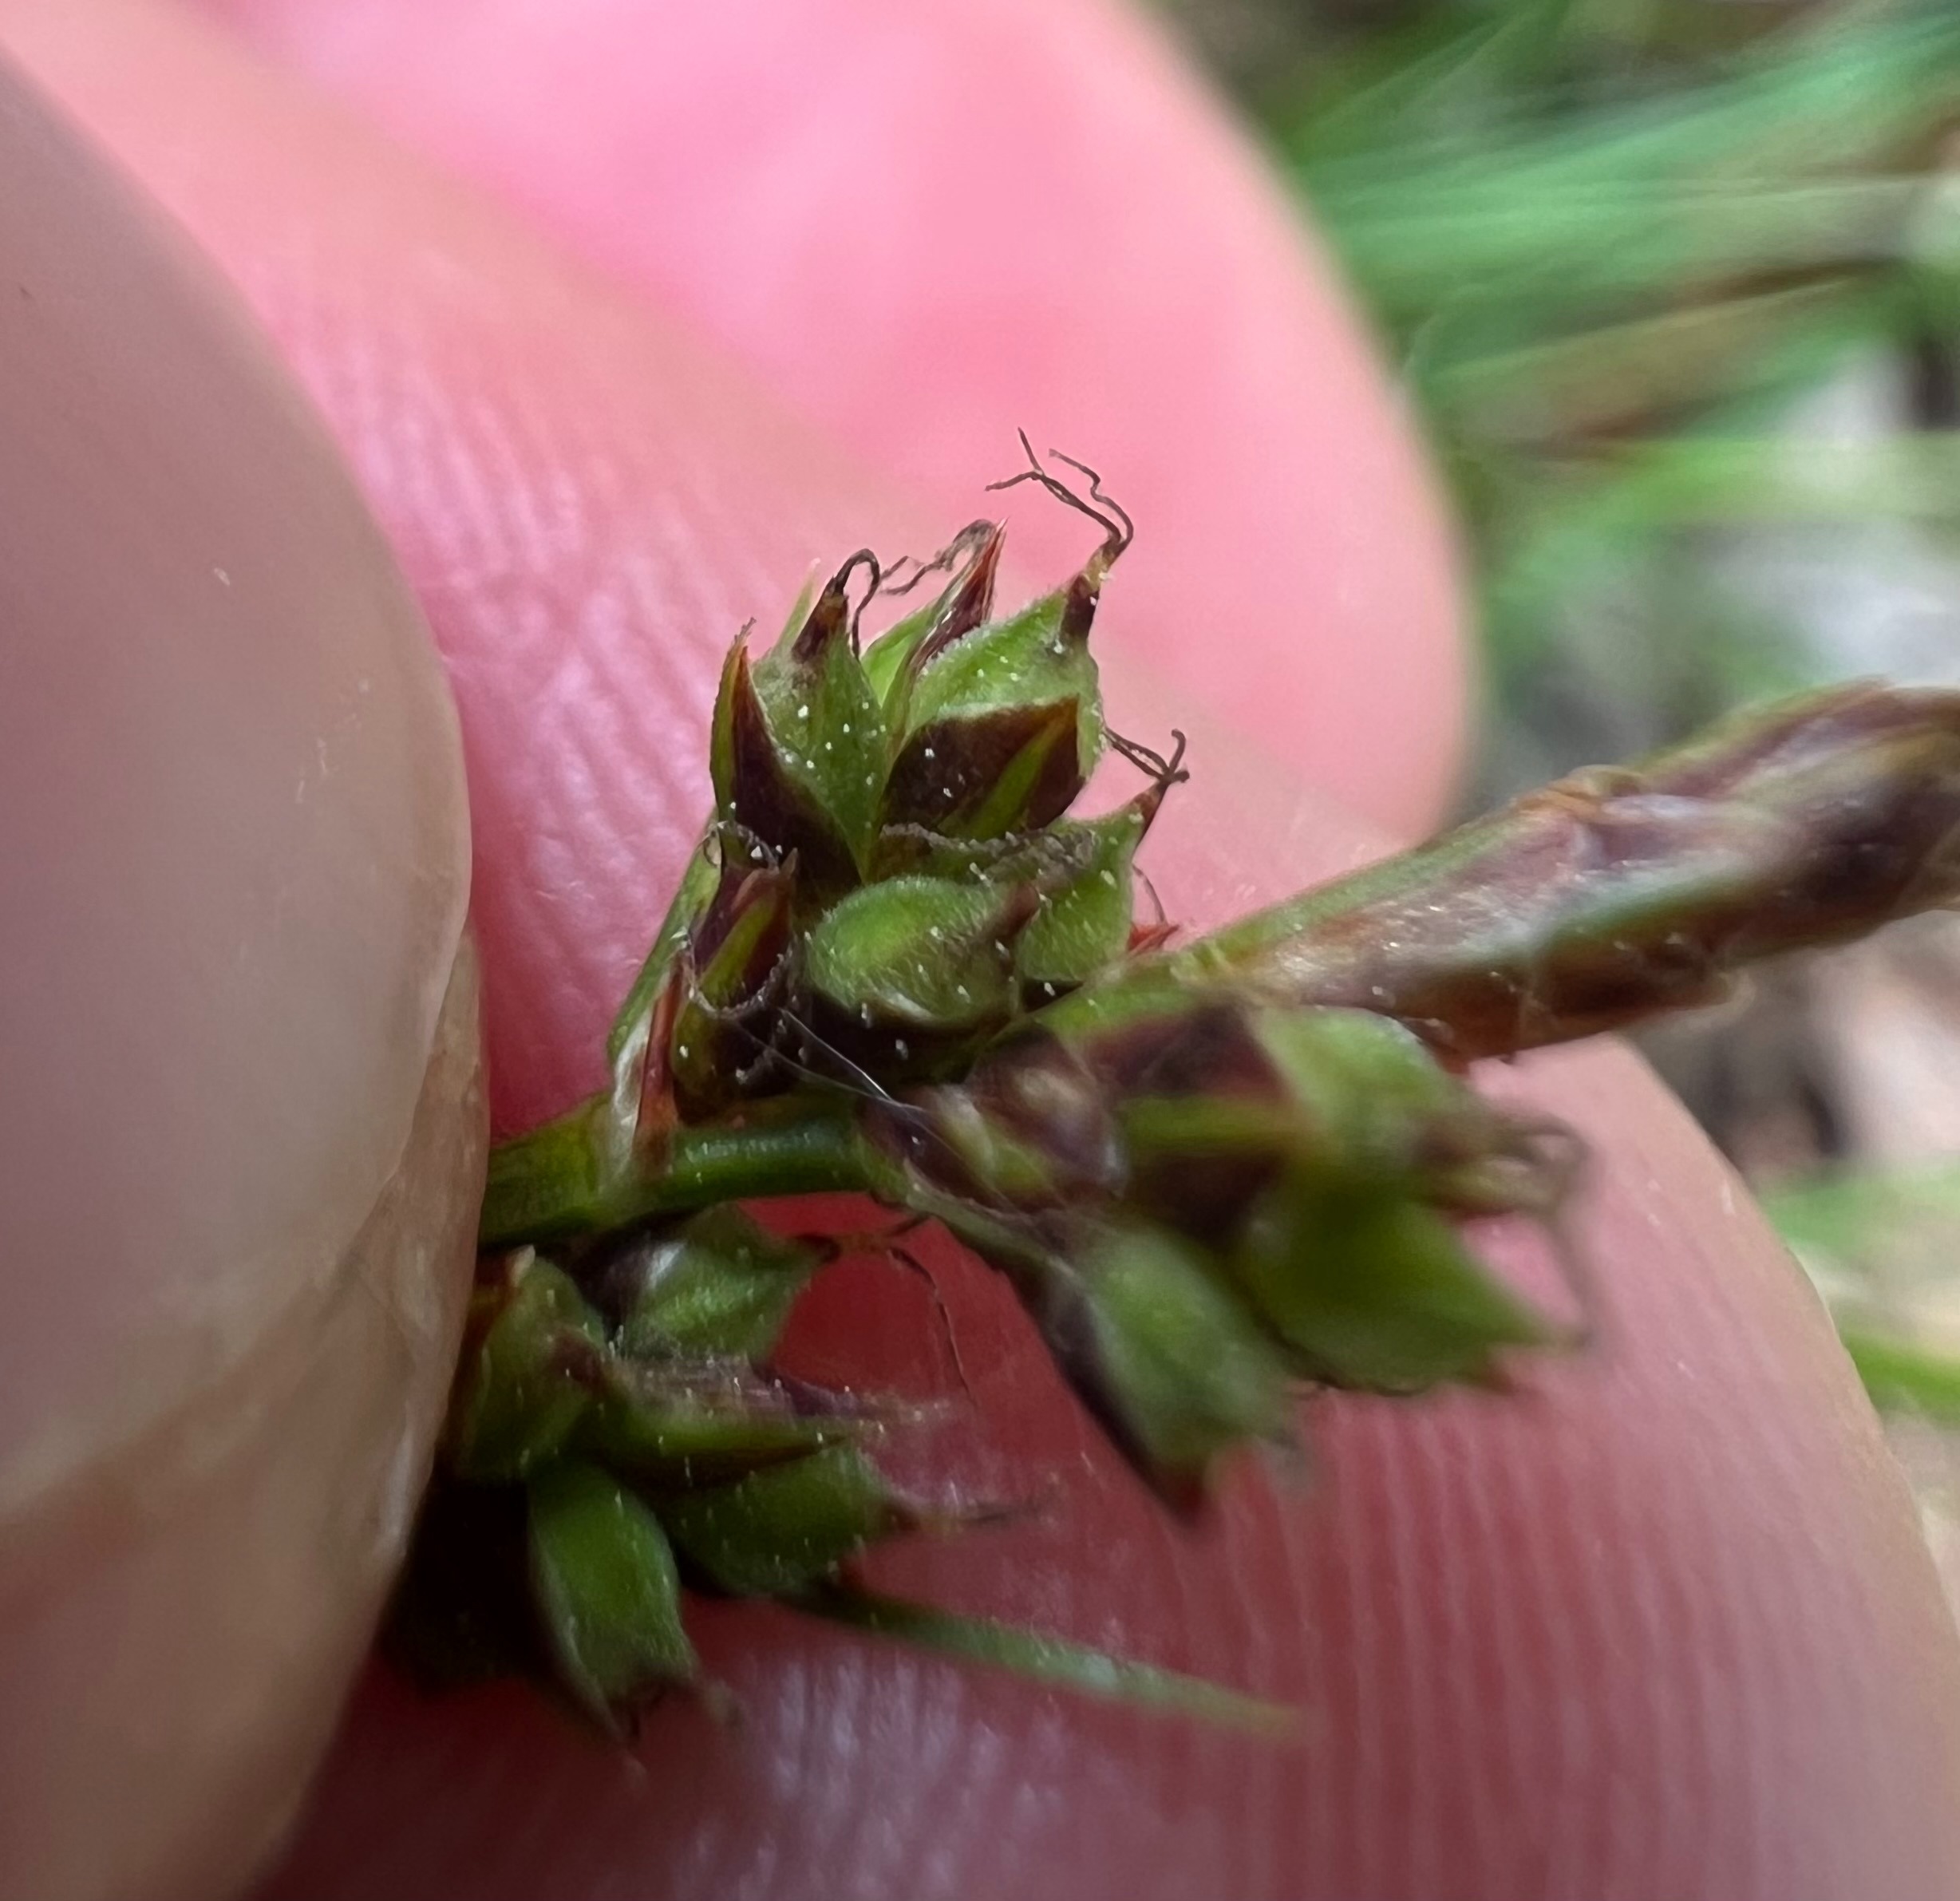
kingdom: Plantae
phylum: Tracheophyta
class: Liliopsida
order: Poales
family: Cyperaceae
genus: Carex
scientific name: Carex pilulifera
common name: Pille-star
